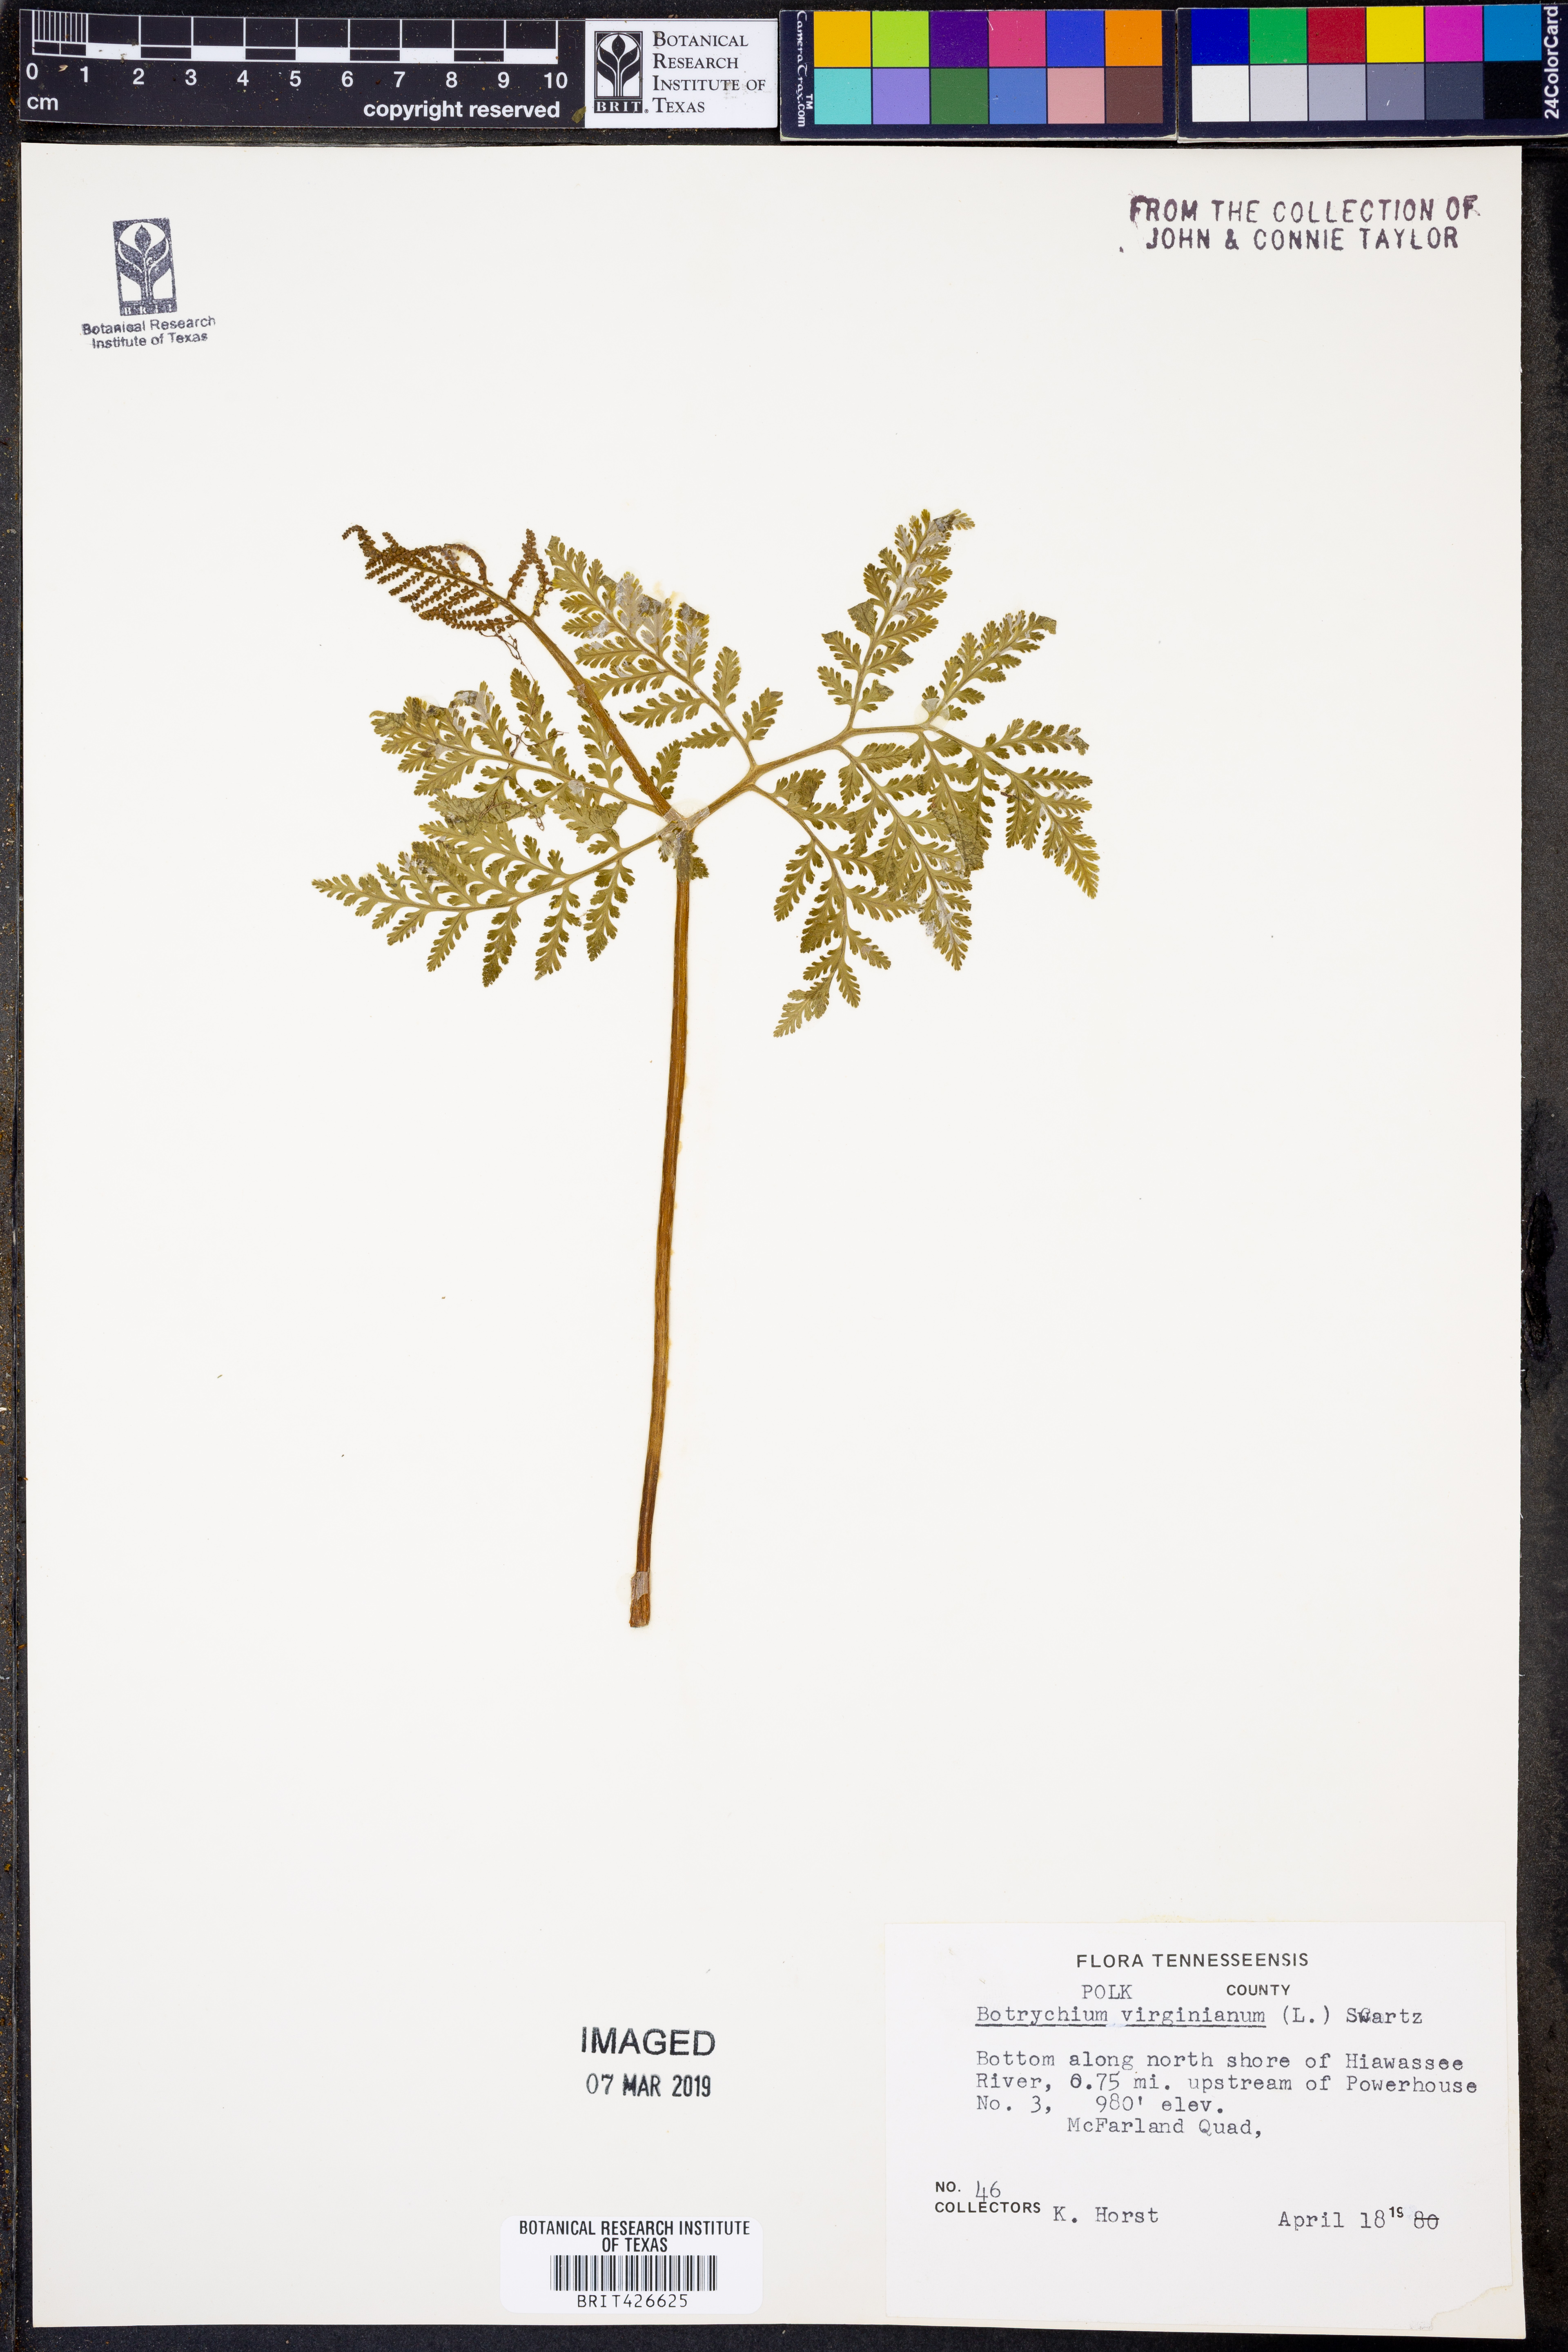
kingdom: Plantae
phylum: Tracheophyta
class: Polypodiopsida
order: Ophioglossales
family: Ophioglossaceae
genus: Botrypus
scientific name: Botrypus virginianus
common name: Common grapefern
